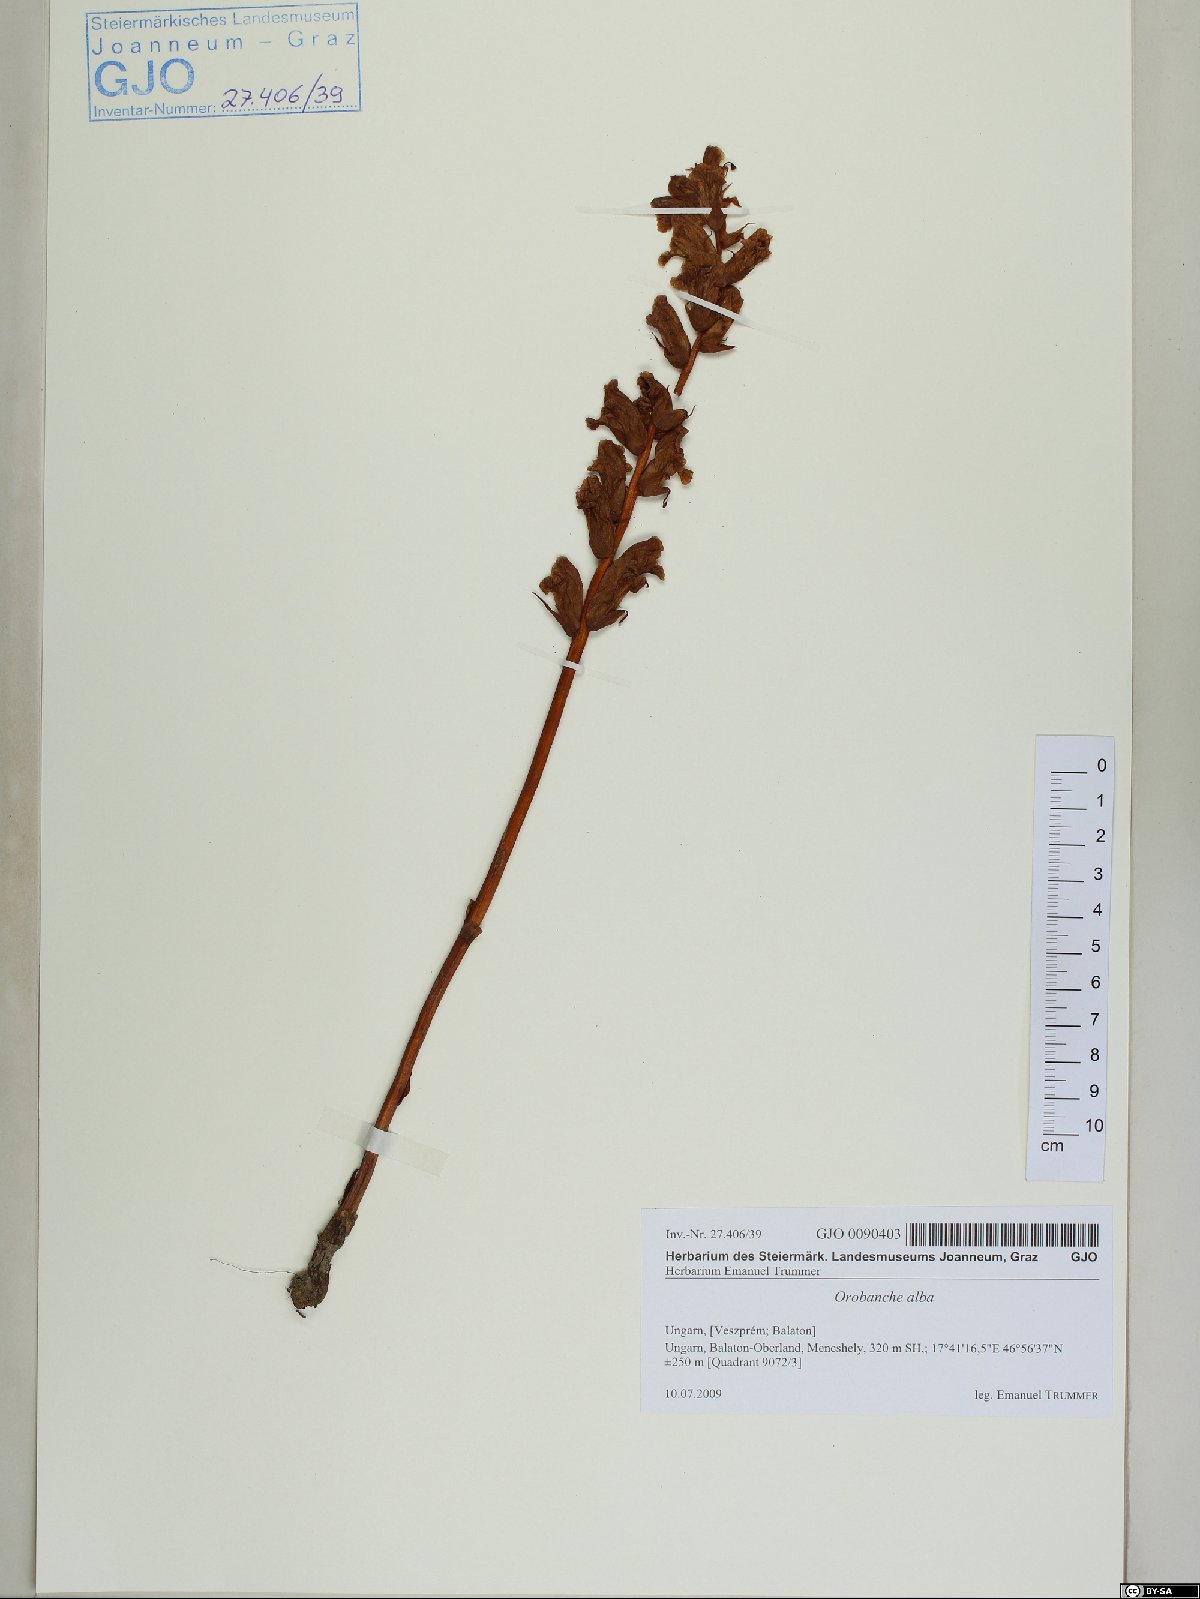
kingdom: Plantae
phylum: Tracheophyta
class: Magnoliopsida
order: Lamiales
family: Orobanchaceae
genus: Orobanche
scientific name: Orobanche alba
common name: Thyme broomrape
